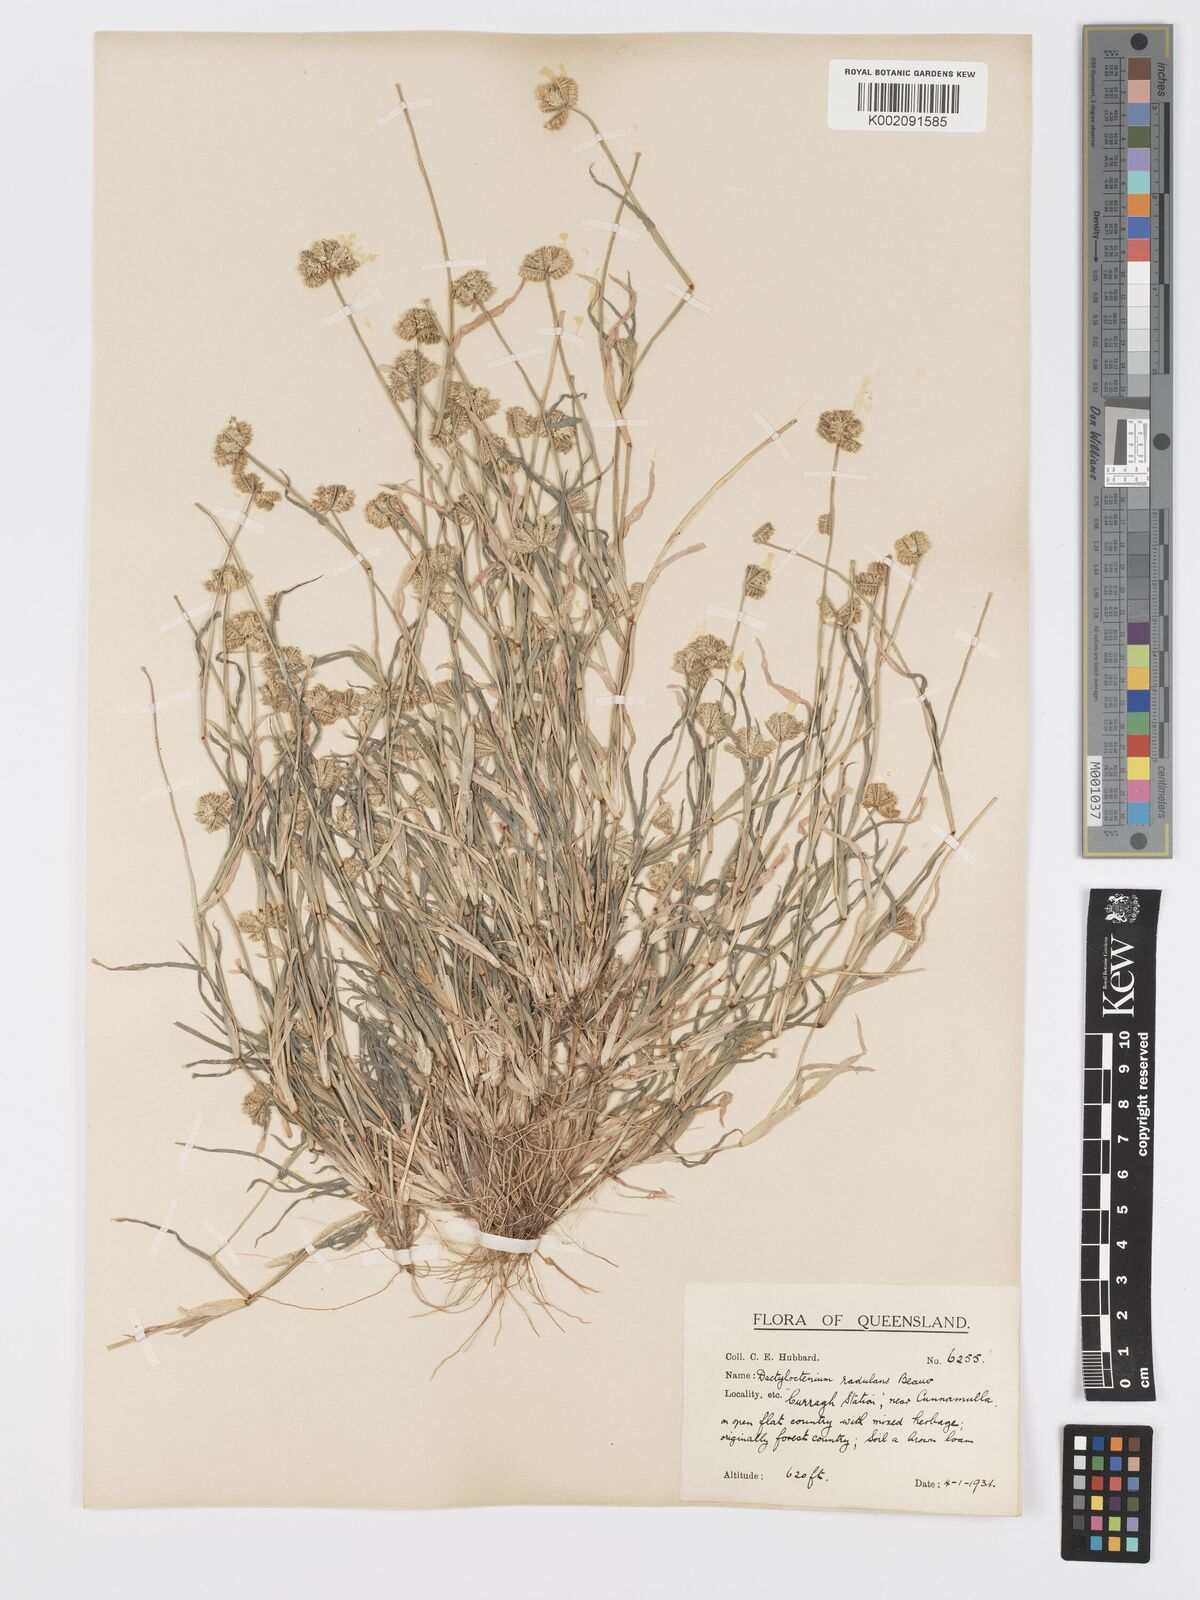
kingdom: Plantae
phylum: Tracheophyta
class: Liliopsida
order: Poales
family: Poaceae
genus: Dactyloctenium
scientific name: Dactyloctenium radulans
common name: Button-grass
